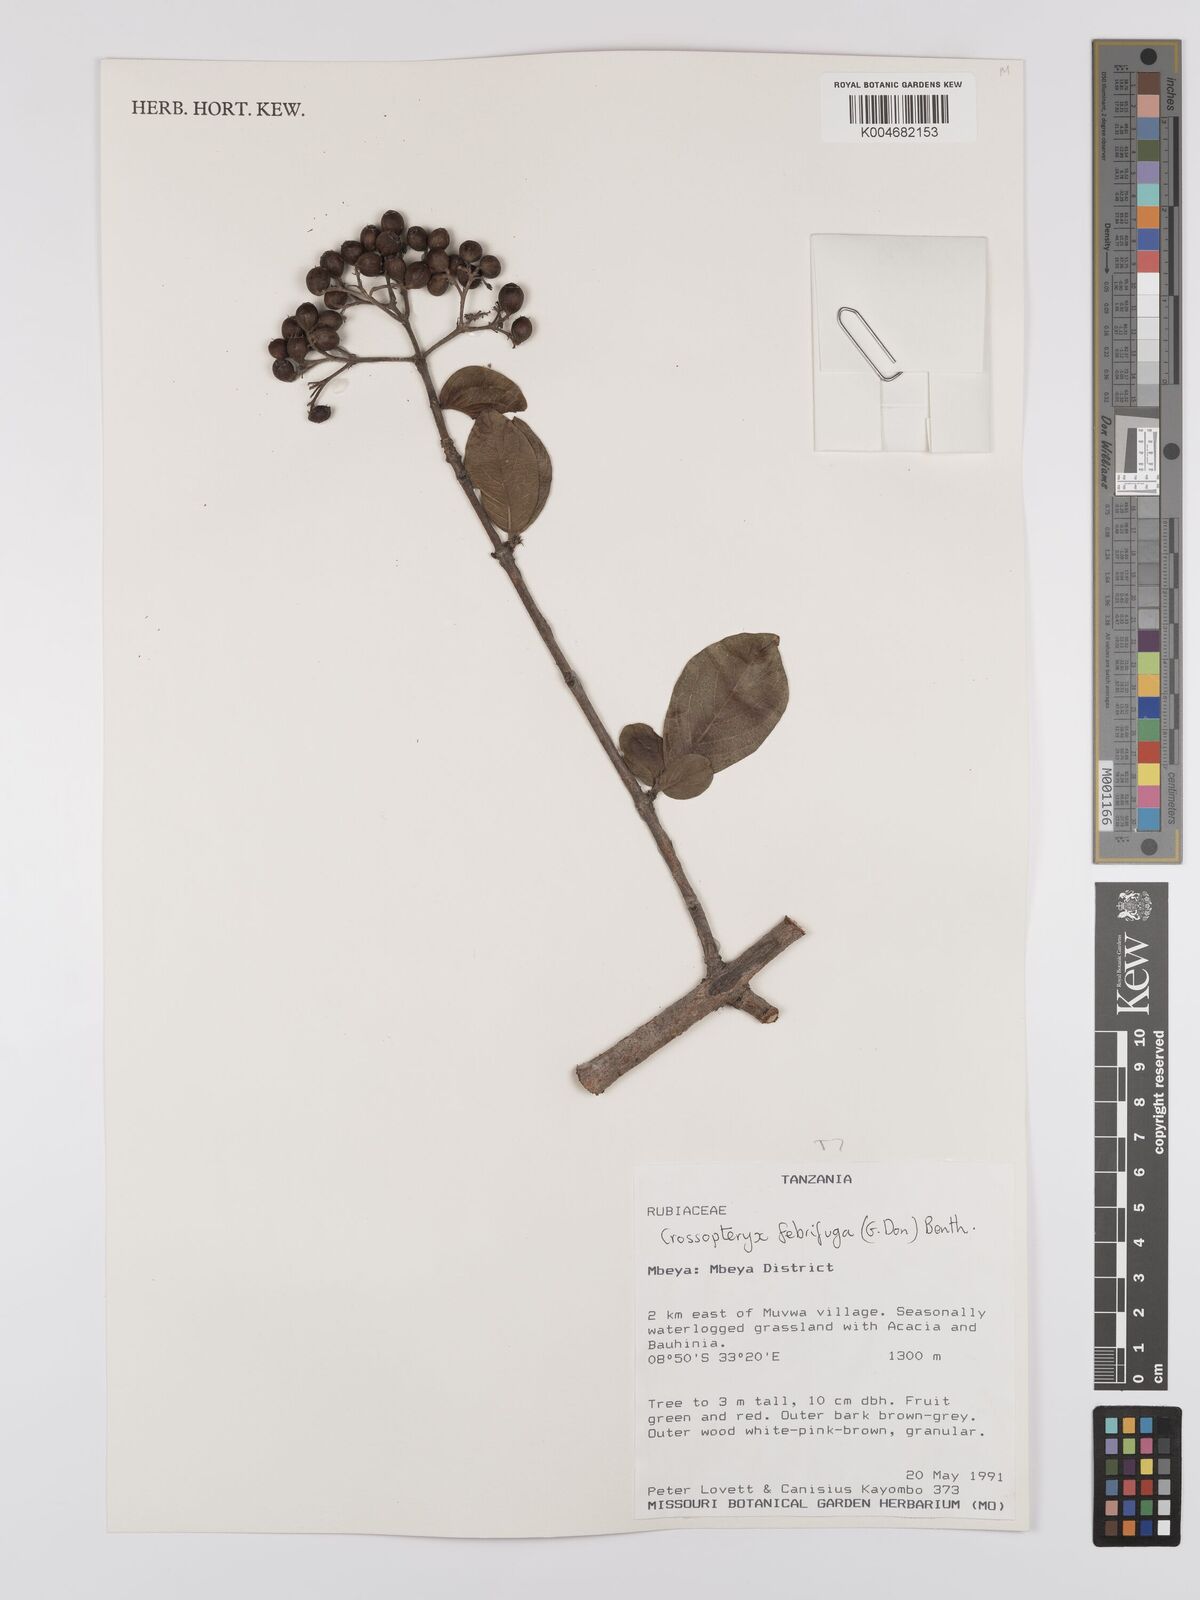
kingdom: Plantae
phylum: Tracheophyta
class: Magnoliopsida
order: Gentianales
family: Rubiaceae
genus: Crossopteryx
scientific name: Crossopteryx febrifuga
